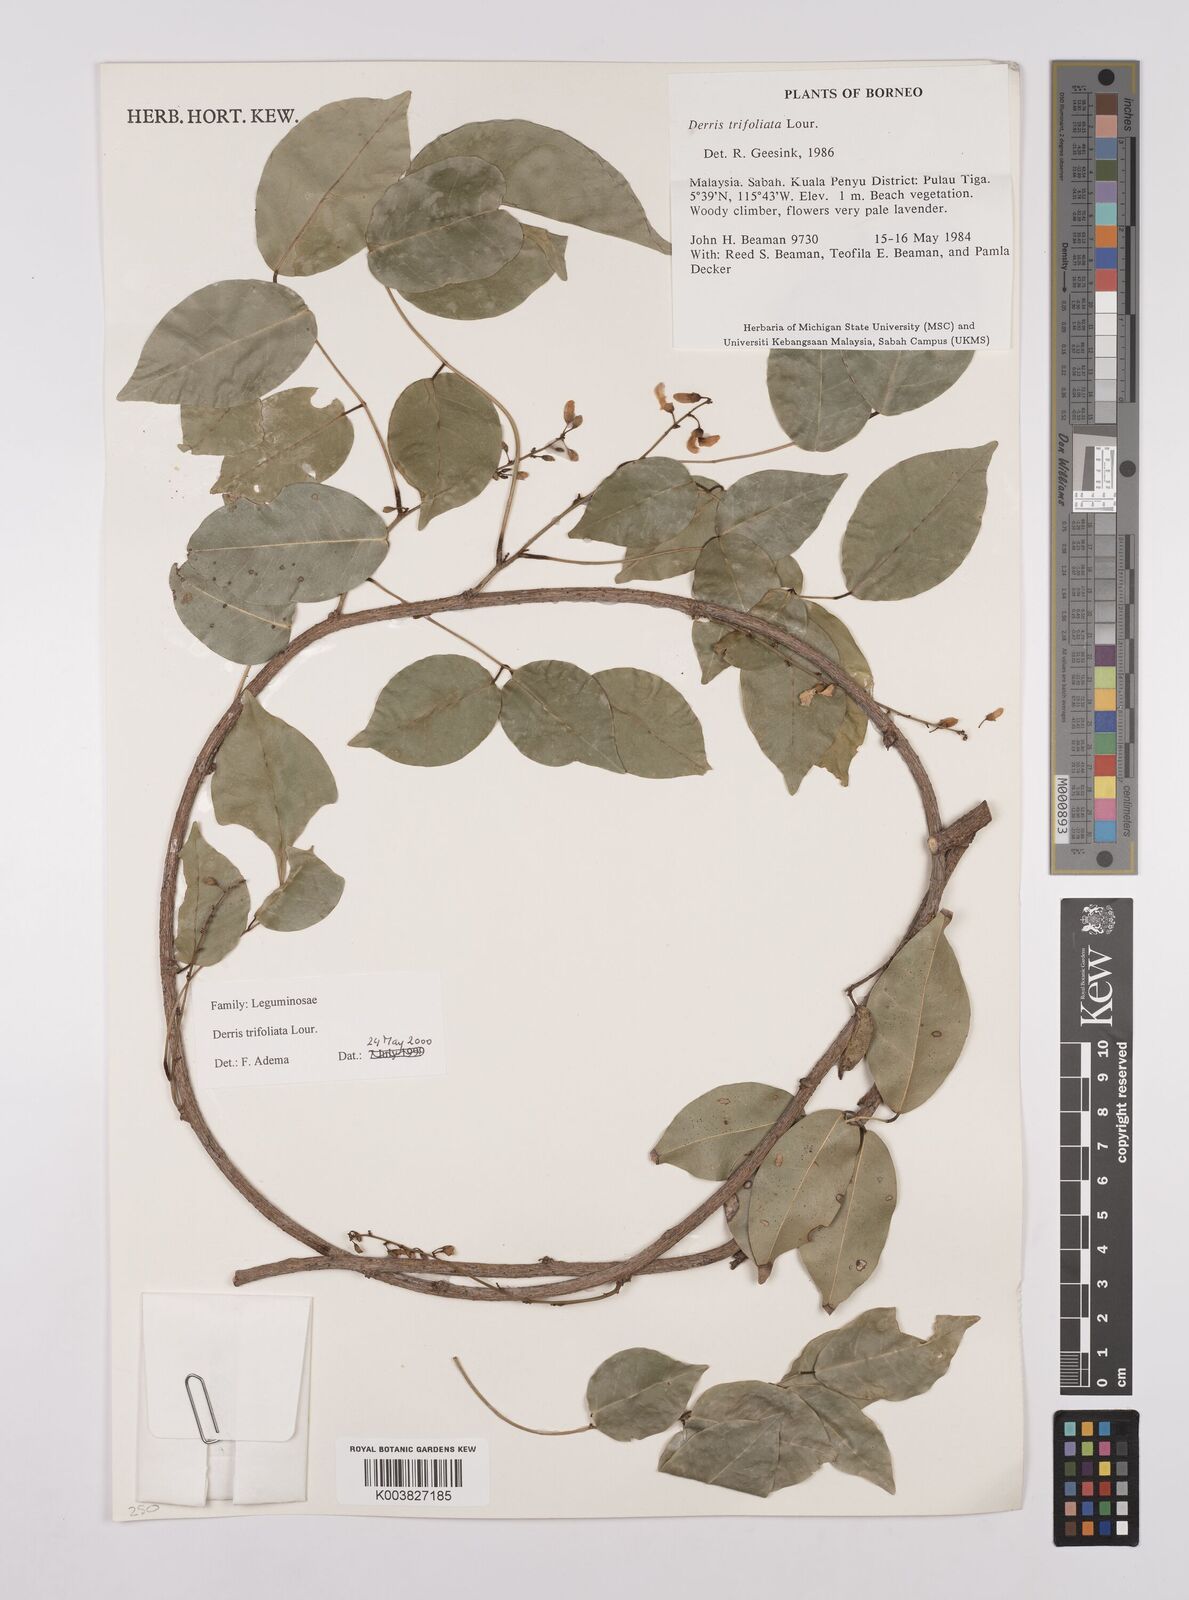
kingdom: Plantae
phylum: Tracheophyta
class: Magnoliopsida
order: Fabales
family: Fabaceae
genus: Derris
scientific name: Derris trifoliata
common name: Three-leaf derris
